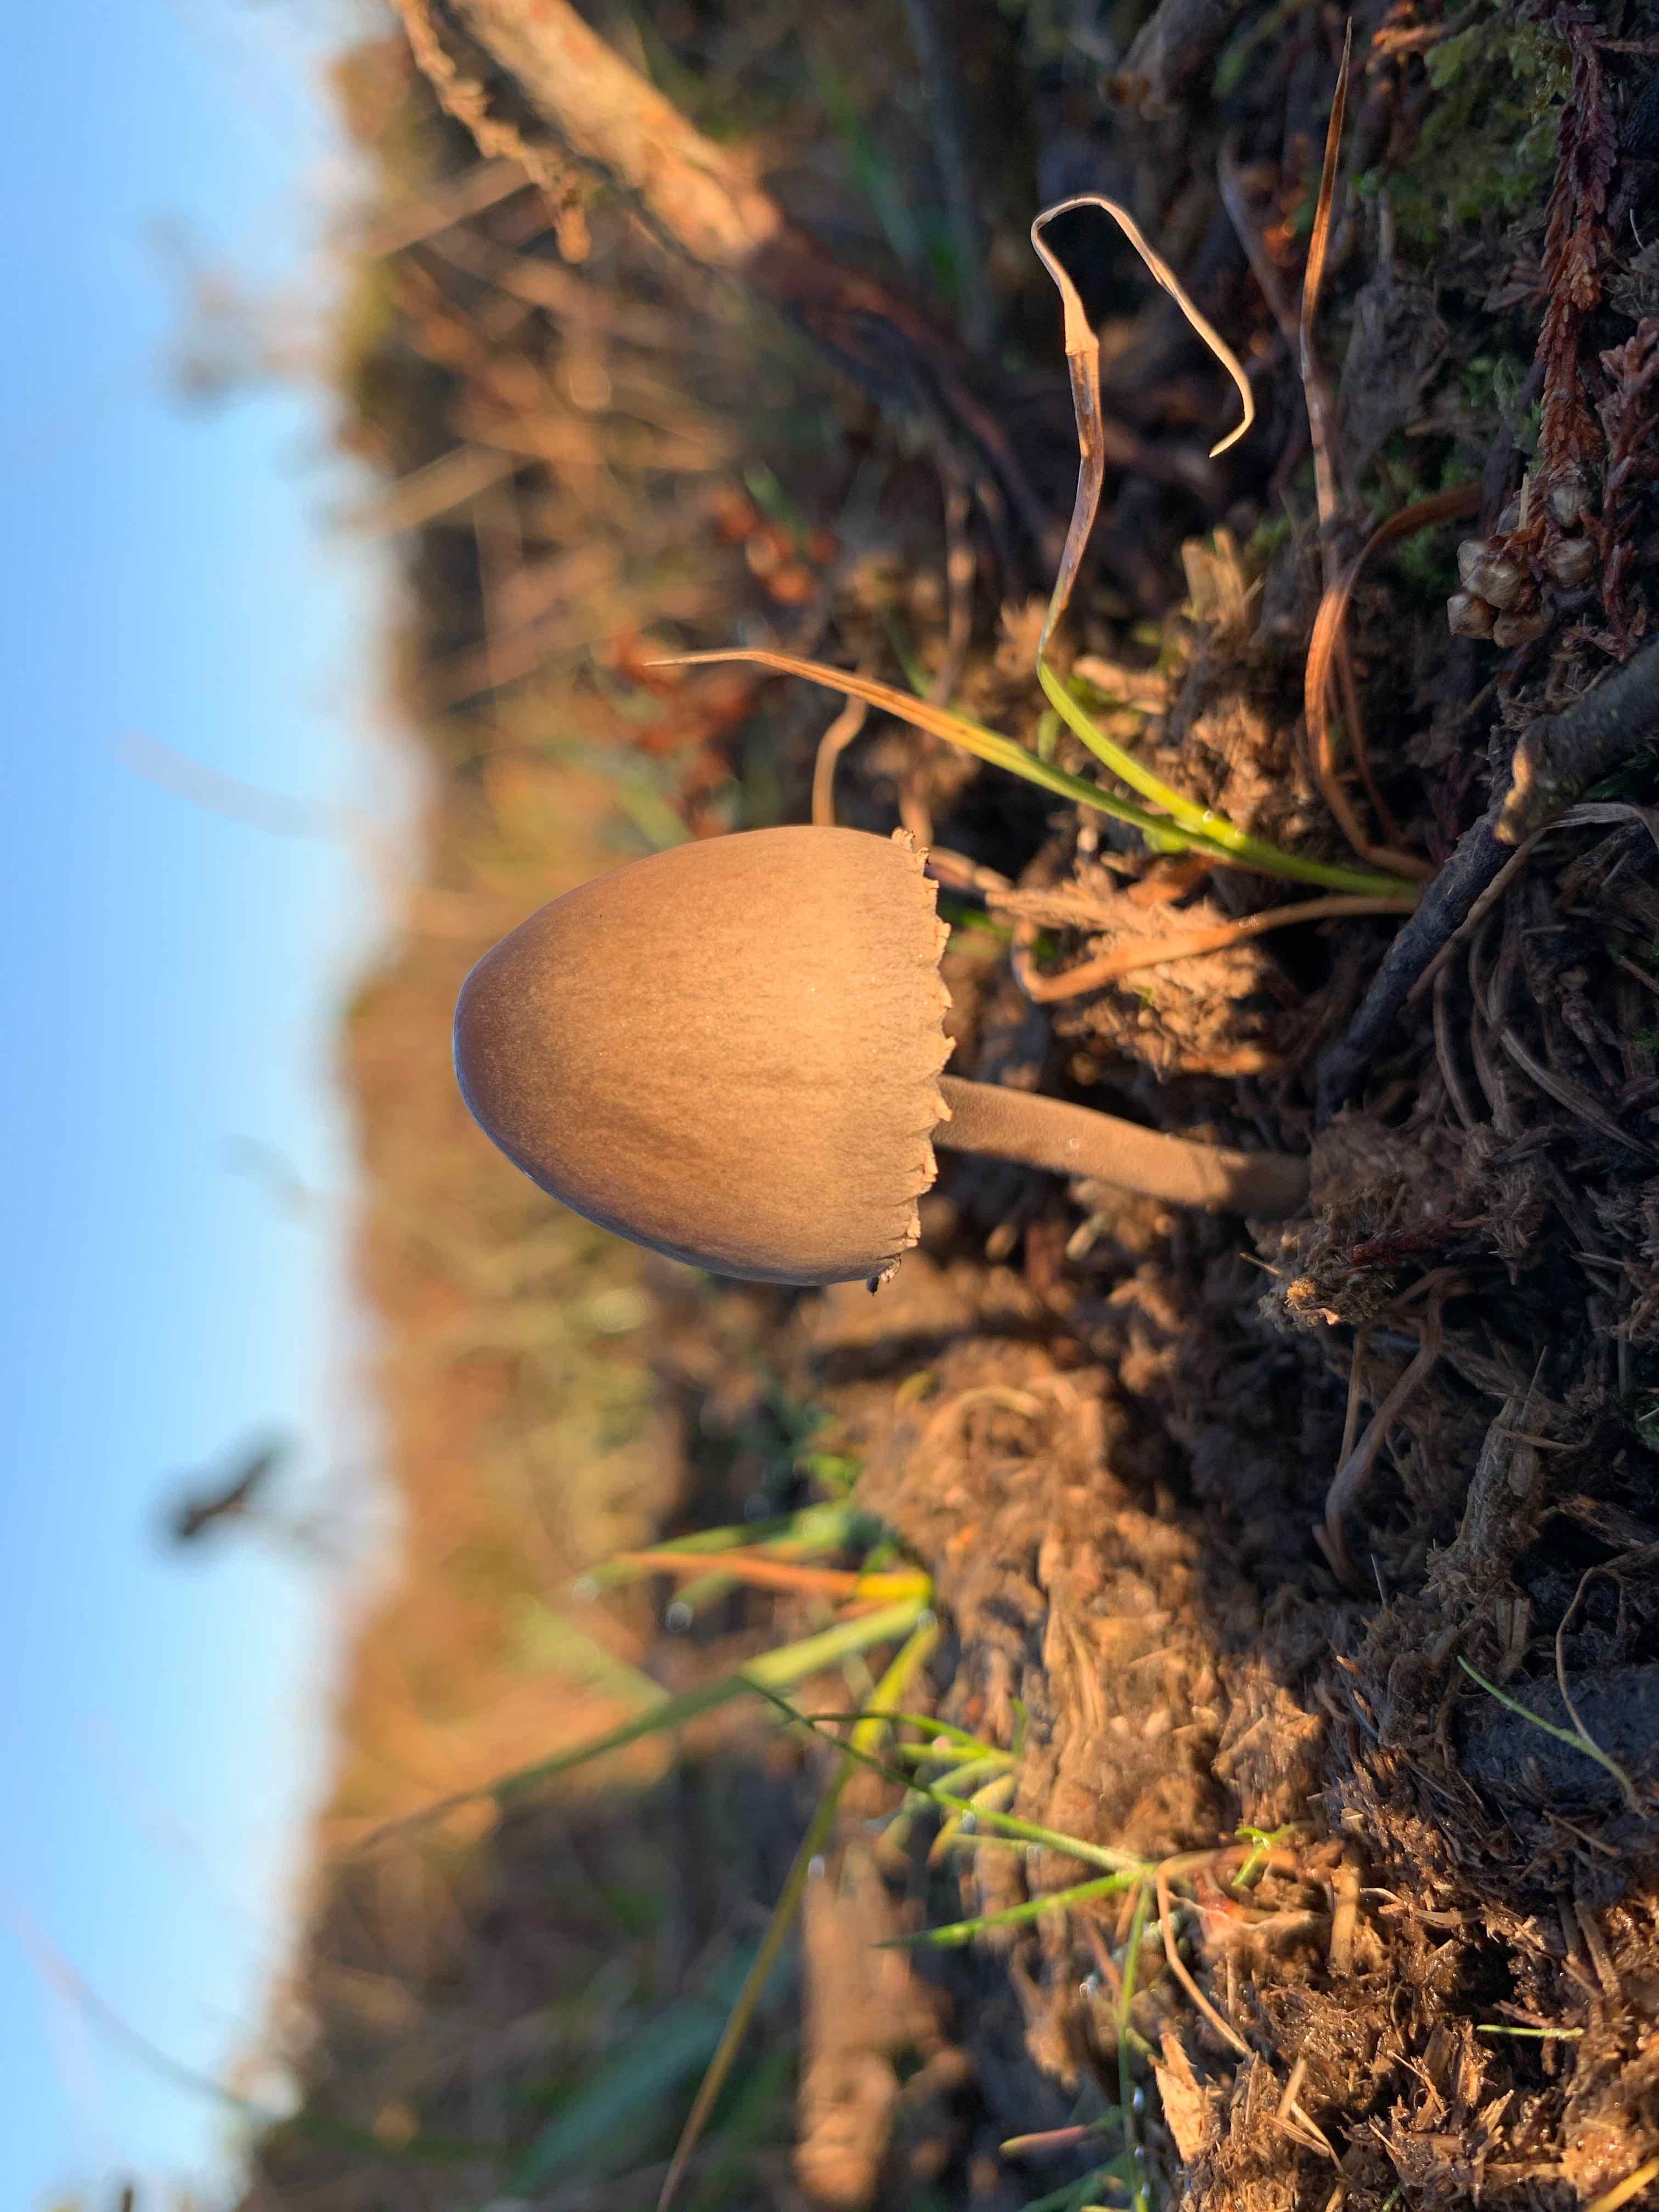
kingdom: Fungi
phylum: Basidiomycota
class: Agaricomycetes
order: Agaricales
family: Bolbitiaceae
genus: Panaeolus
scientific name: Panaeolus papilionaceus
